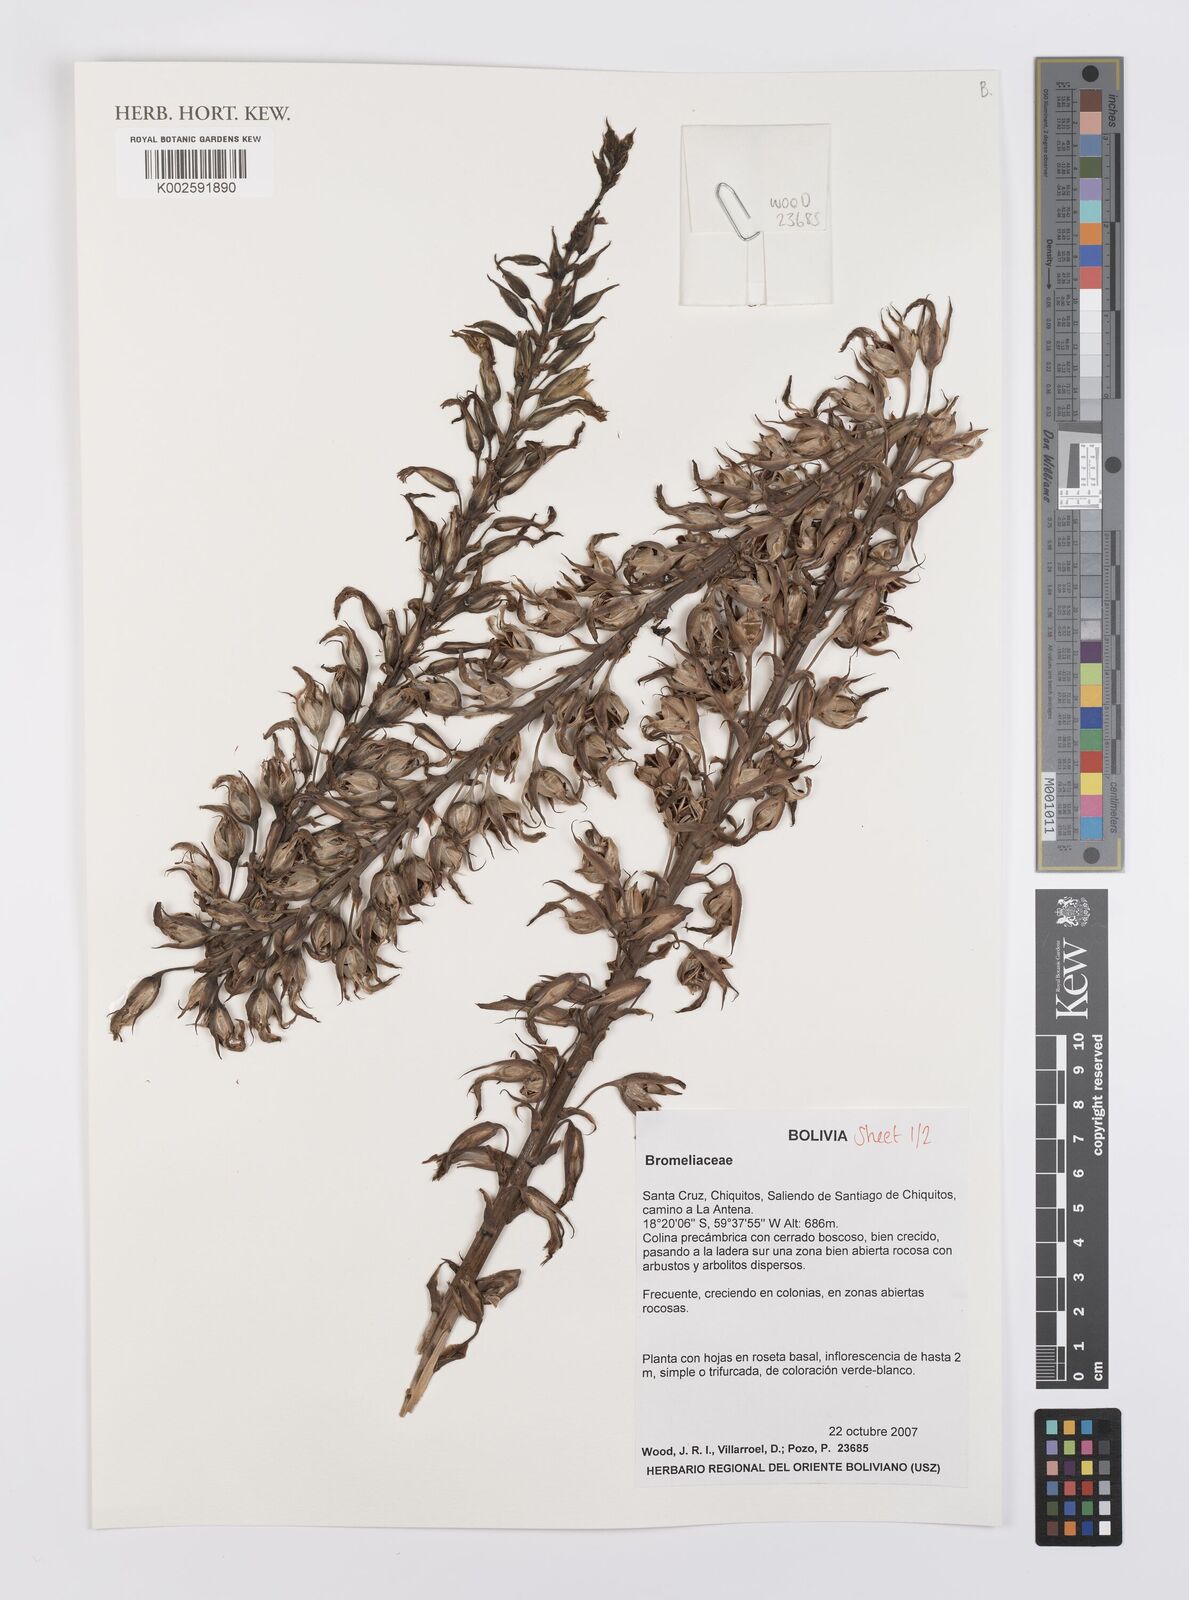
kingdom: Plantae
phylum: Tracheophyta
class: Liliopsida
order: Poales
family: Bromeliaceae
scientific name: Bromeliaceae
